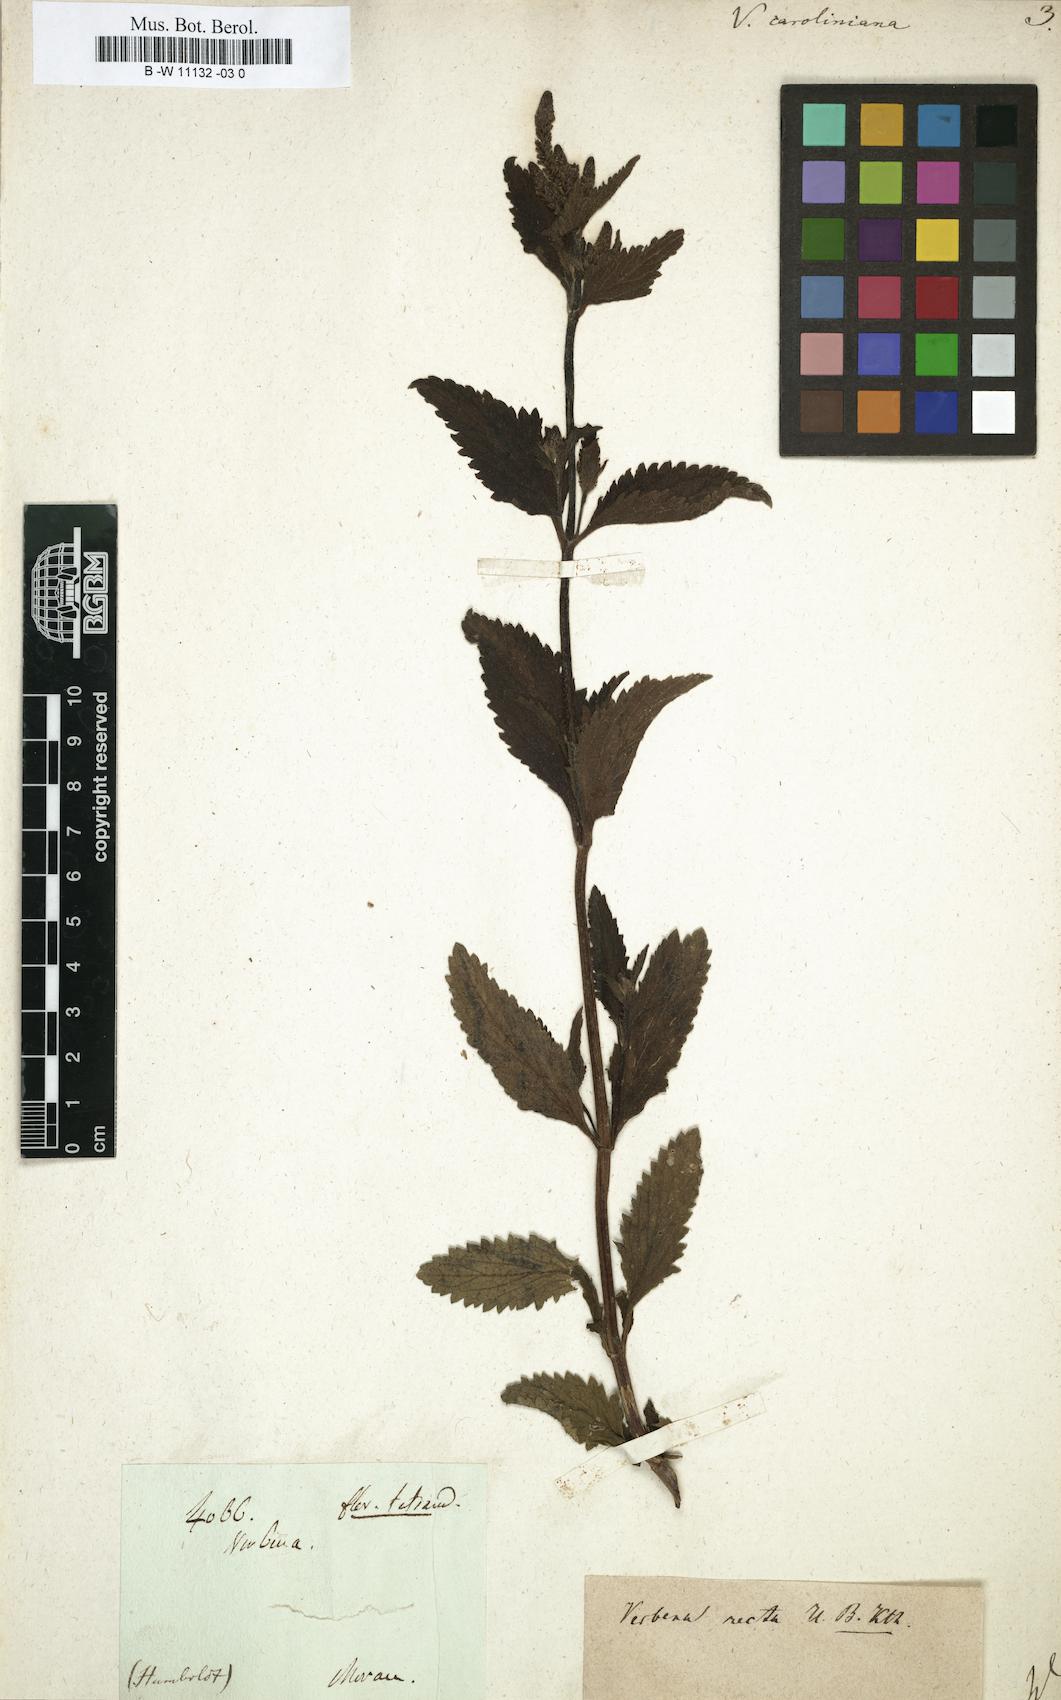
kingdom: Plantae
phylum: Tracheophyta
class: Magnoliopsida
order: Lamiales
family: Verbenaceae
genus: Verbena
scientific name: Verbena caroliniana
